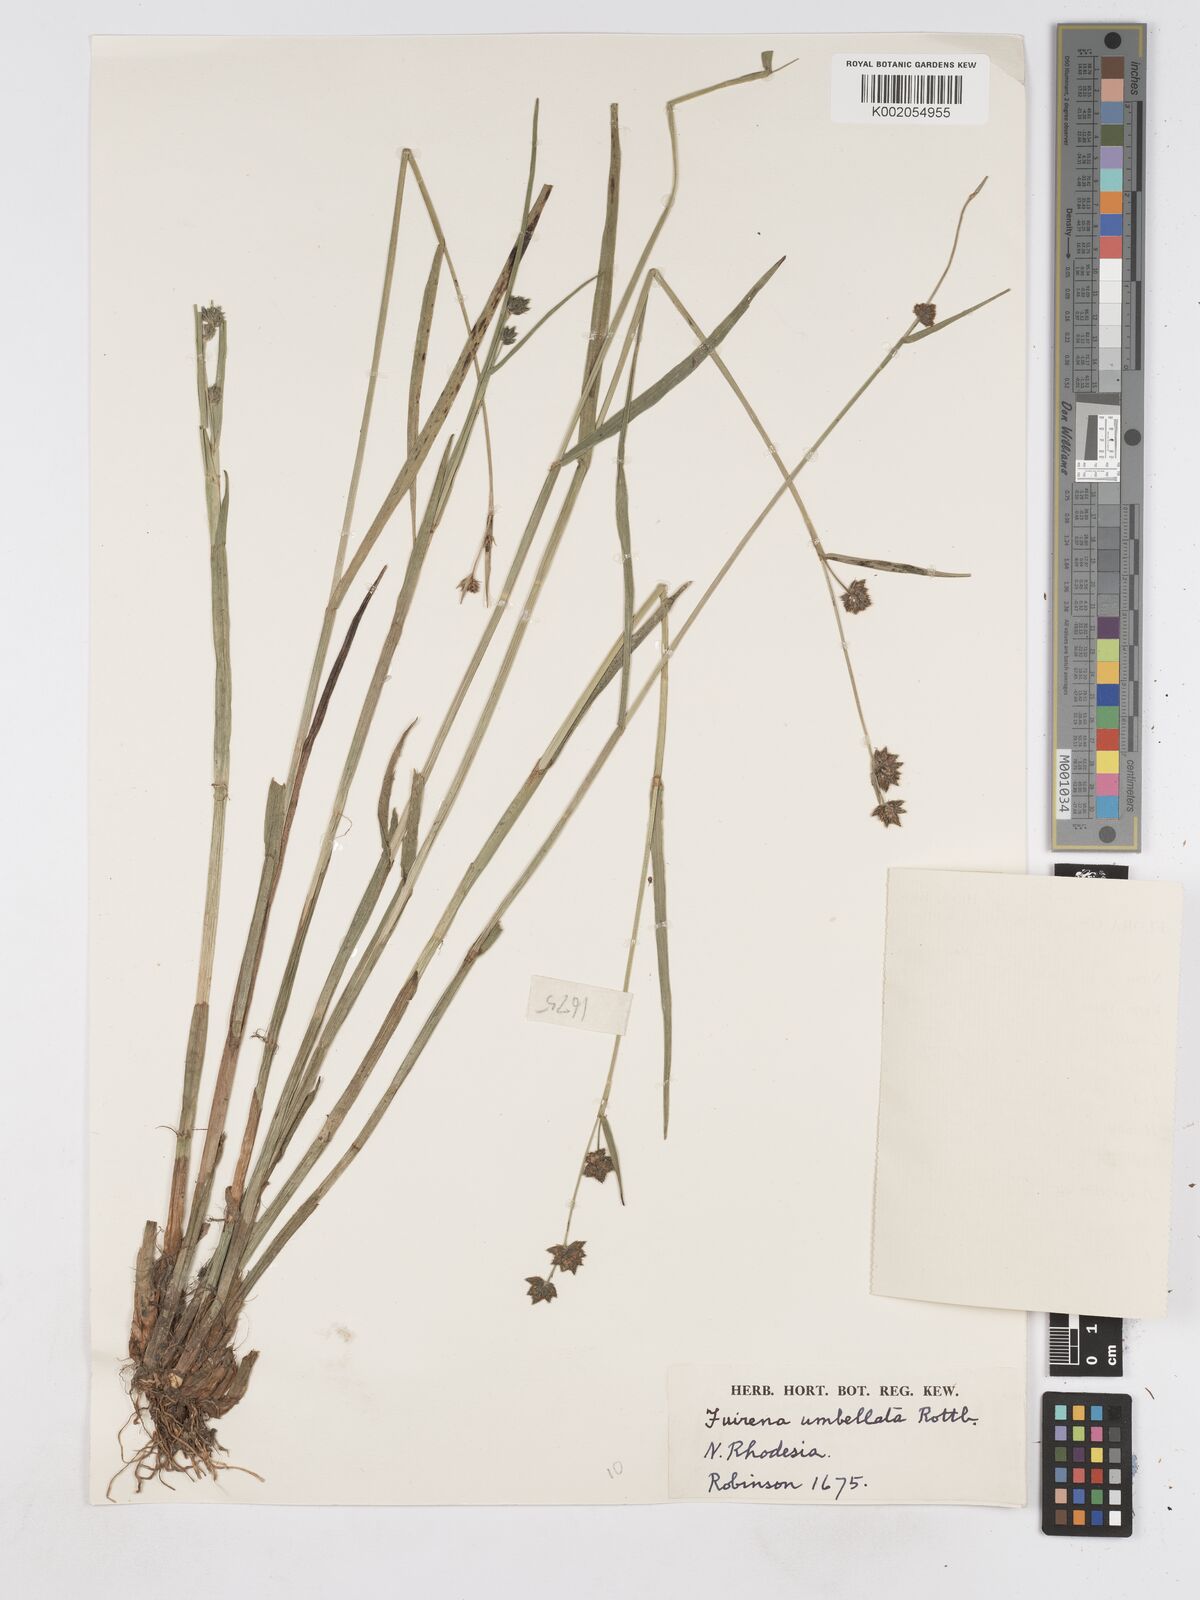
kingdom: Plantae
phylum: Tracheophyta
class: Liliopsida
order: Poales
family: Cyperaceae
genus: Fuirena
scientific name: Fuirena umbellata
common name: Yefen
